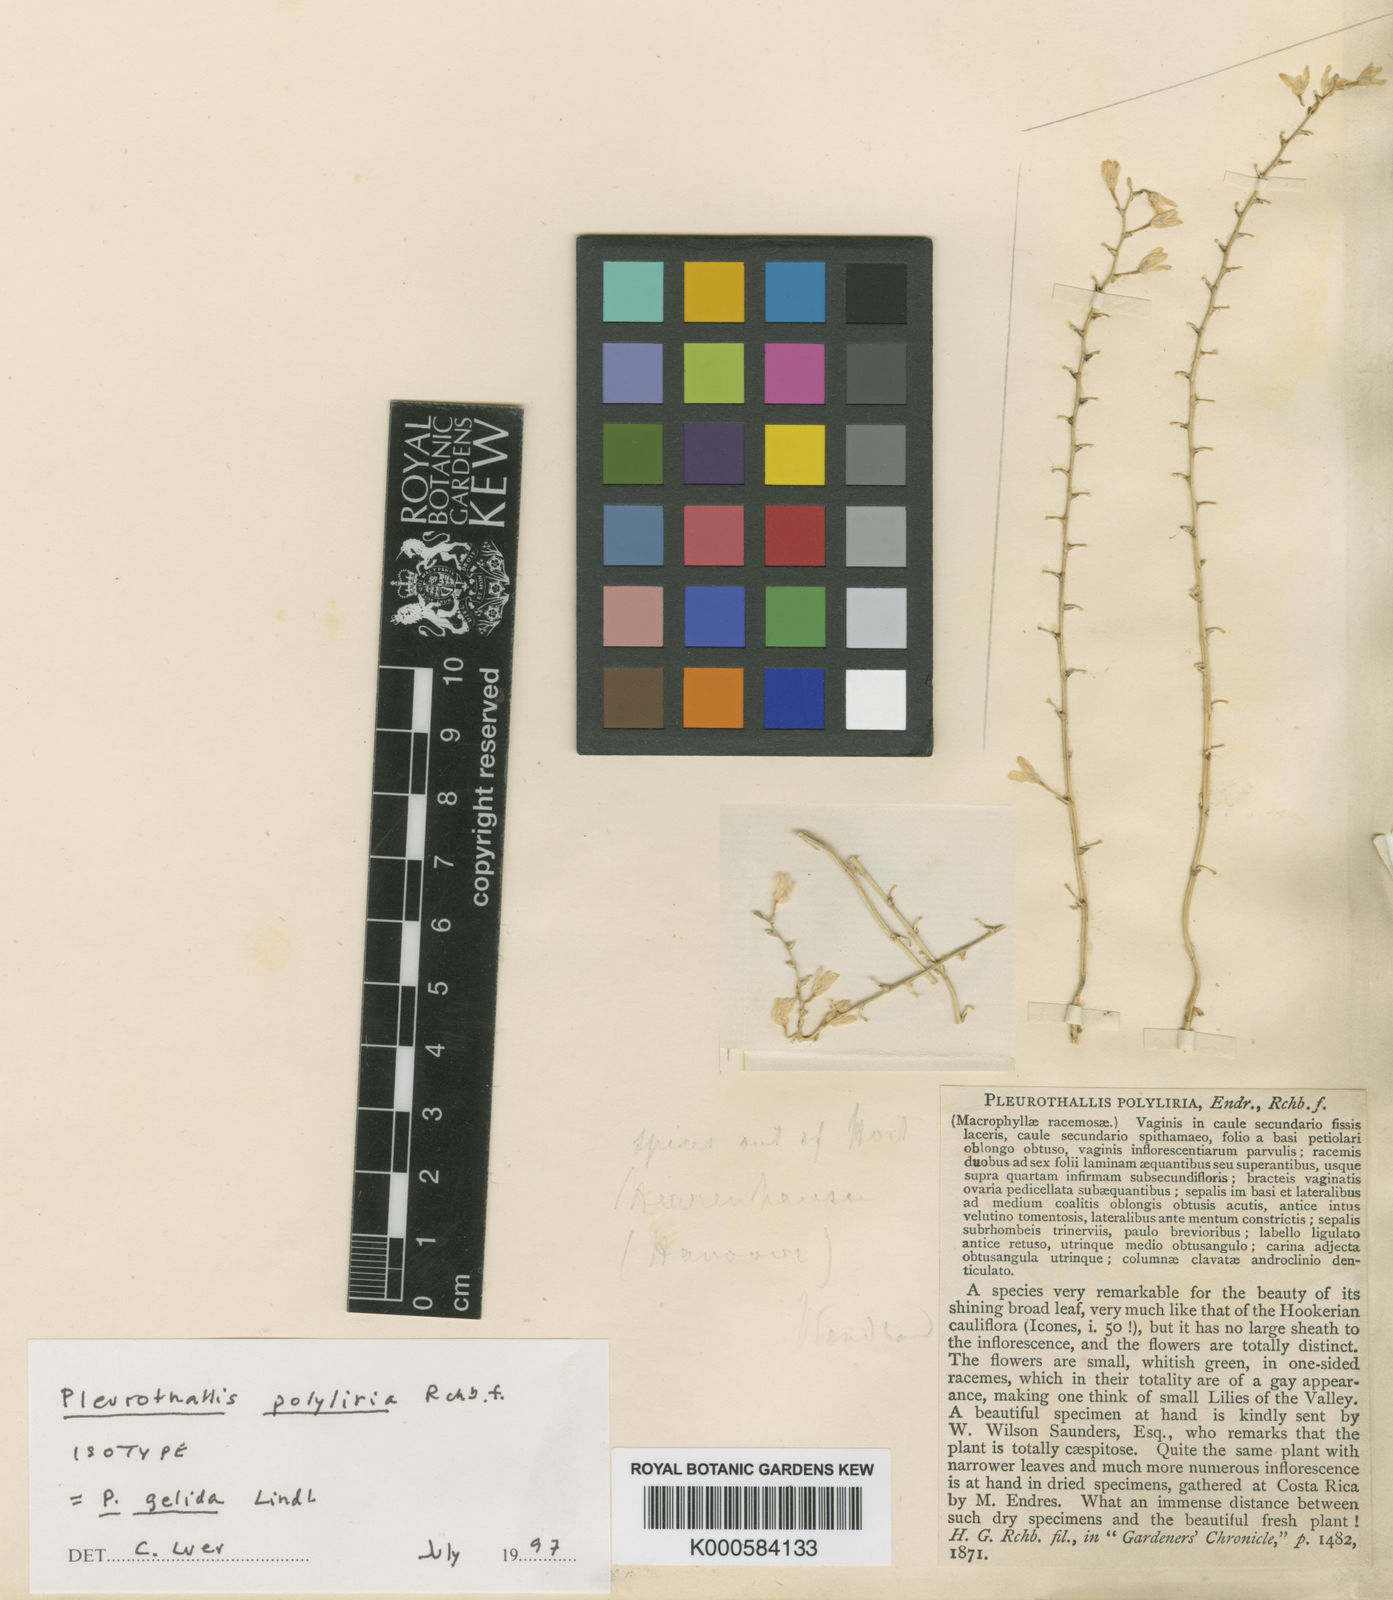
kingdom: Plantae
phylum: Tracheophyta
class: Liliopsida
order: Asparagales
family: Orchidaceae
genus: Pleurothallis
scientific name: Pleurothallis
